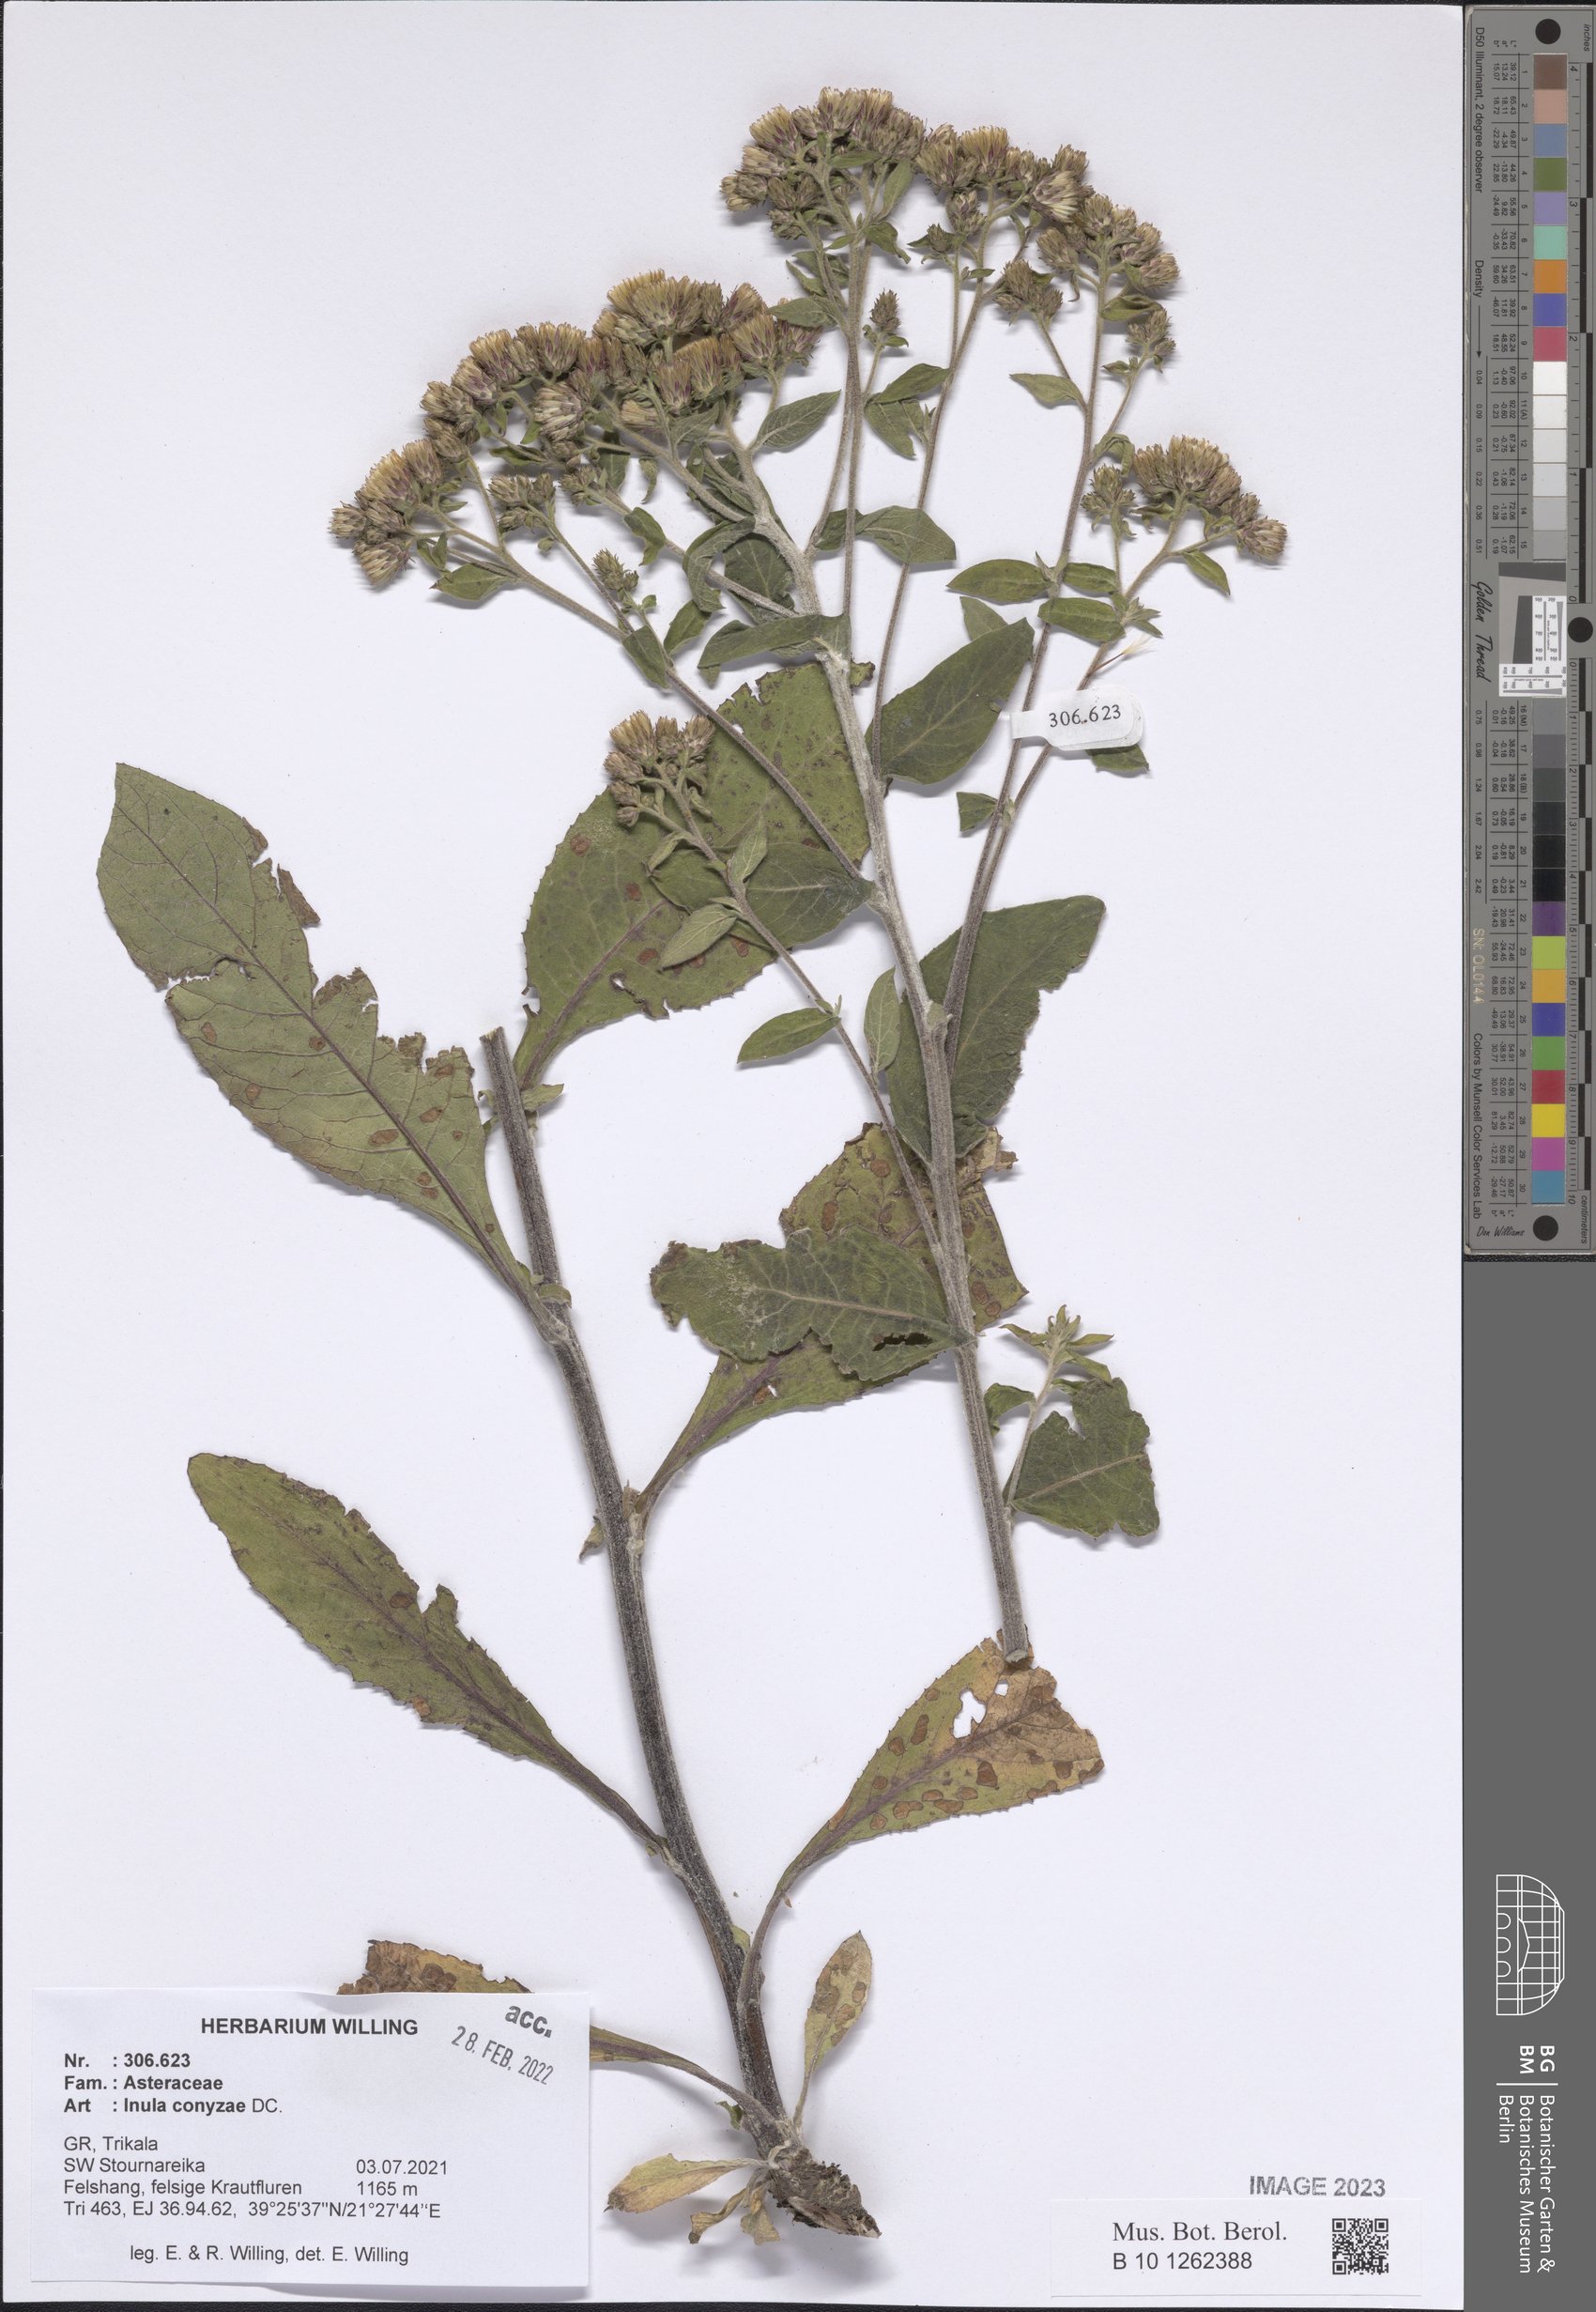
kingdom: Plantae
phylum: Tracheophyta
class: Magnoliopsida
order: Asterales
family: Asteraceae
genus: Pentanema
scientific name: Pentanema squarrosum
